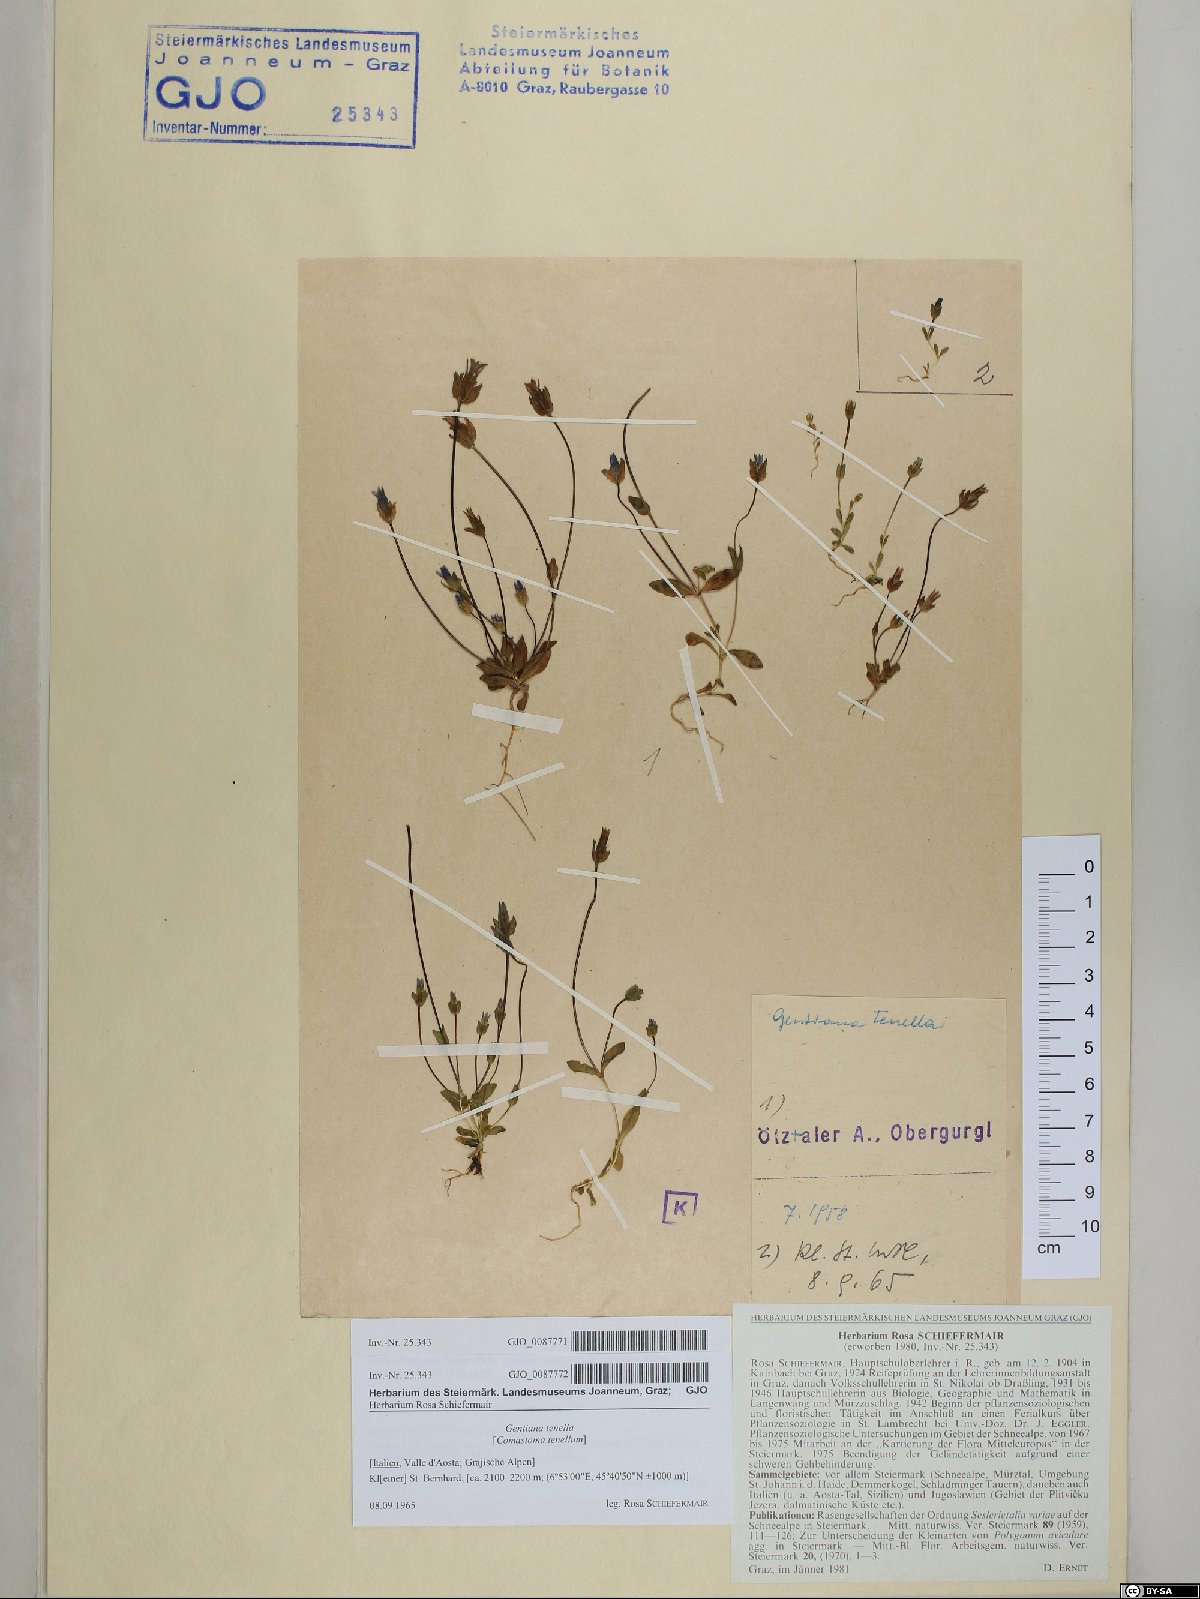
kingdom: Plantae
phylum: Tracheophyta
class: Magnoliopsida
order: Gentianales
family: Gentianaceae
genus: Comastoma
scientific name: Comastoma tenellum
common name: Dane's dwarf gentian
